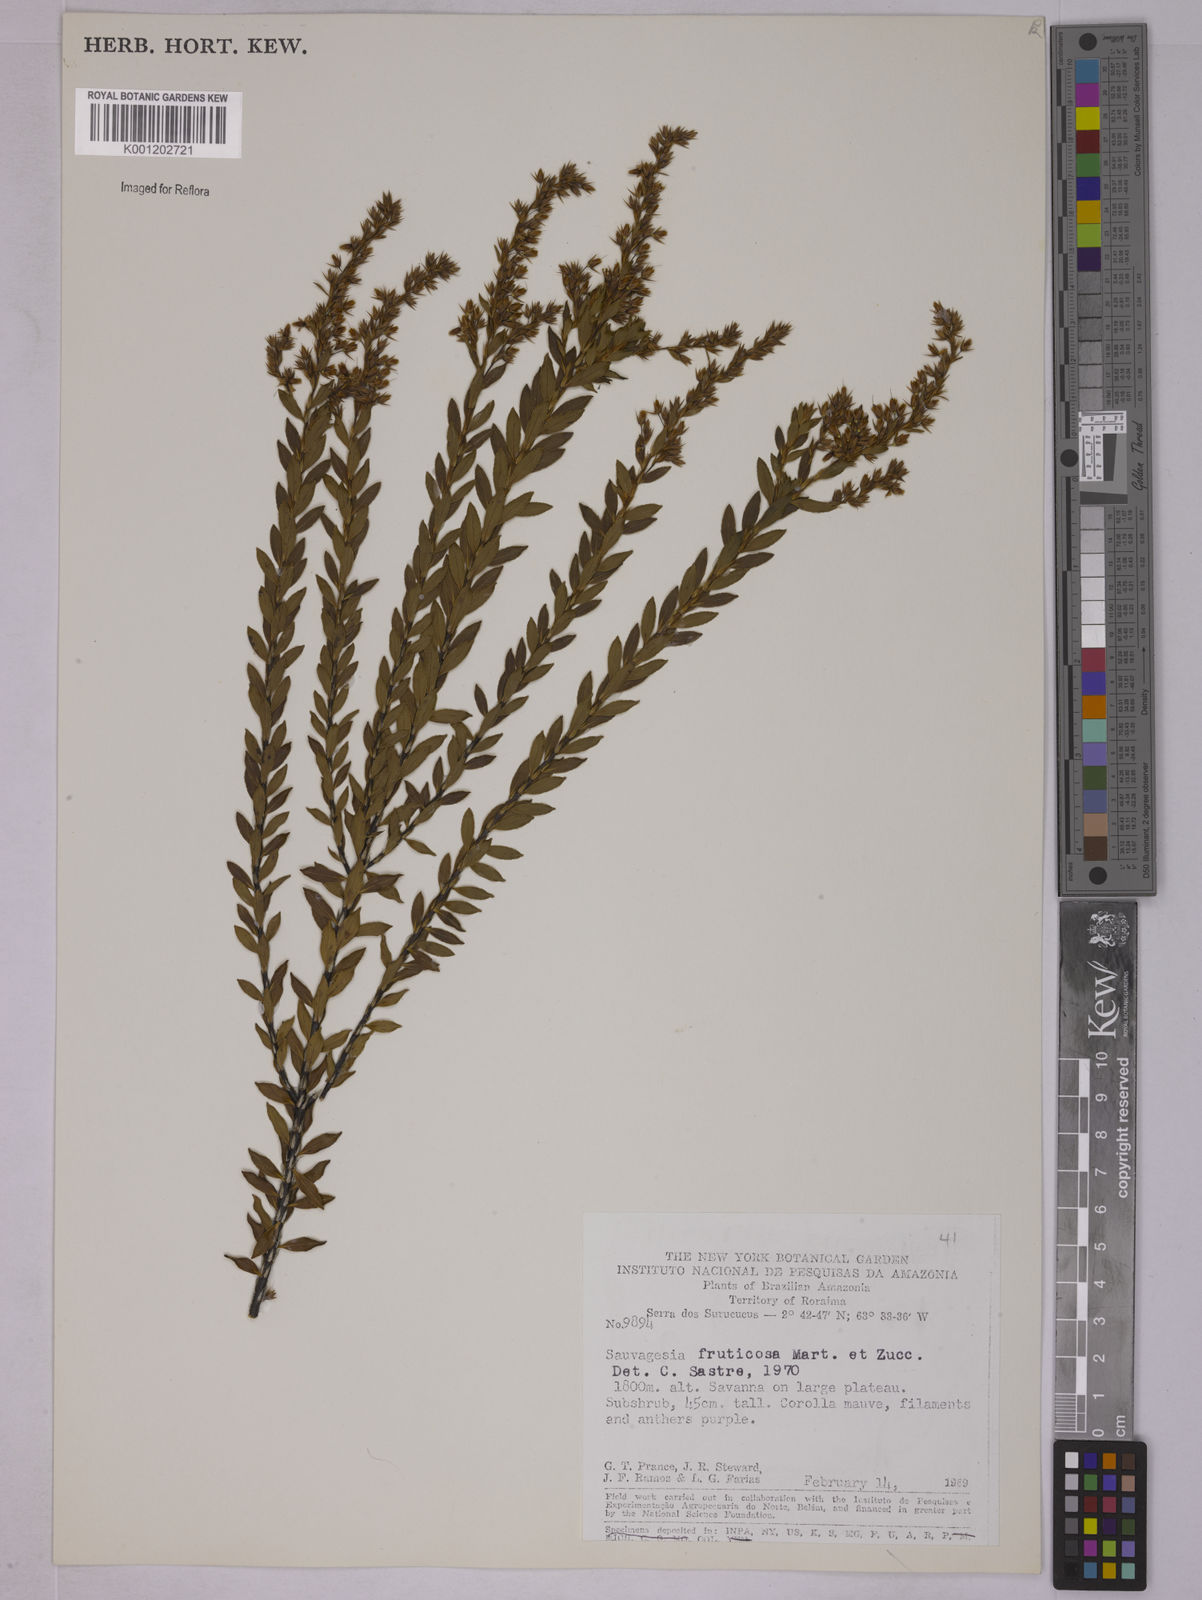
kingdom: Plantae
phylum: Tracheophyta
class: Magnoliopsida
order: Malpighiales
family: Ochnaceae
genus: Sauvagesia
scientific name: Sauvagesia fruticosa
